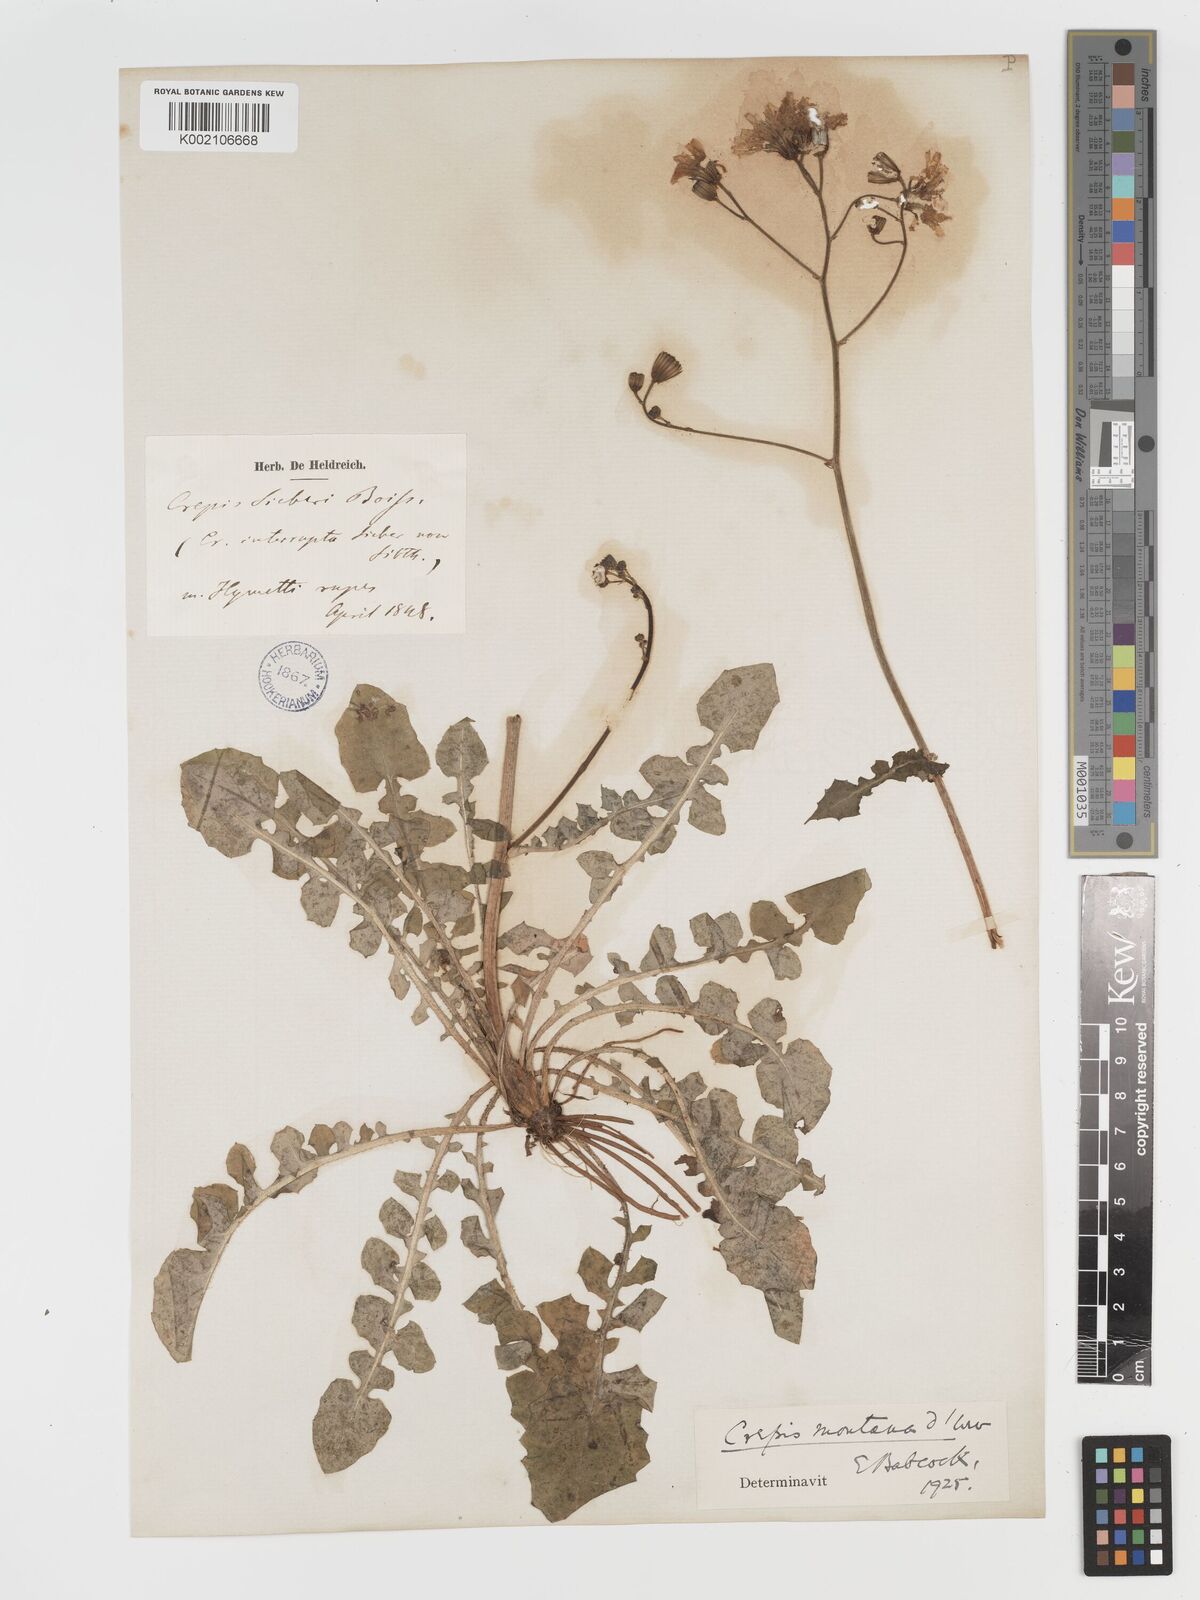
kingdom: Plantae
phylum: Tracheophyta
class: Magnoliopsida
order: Asterales
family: Asteraceae
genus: Crepis
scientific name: Crepis
